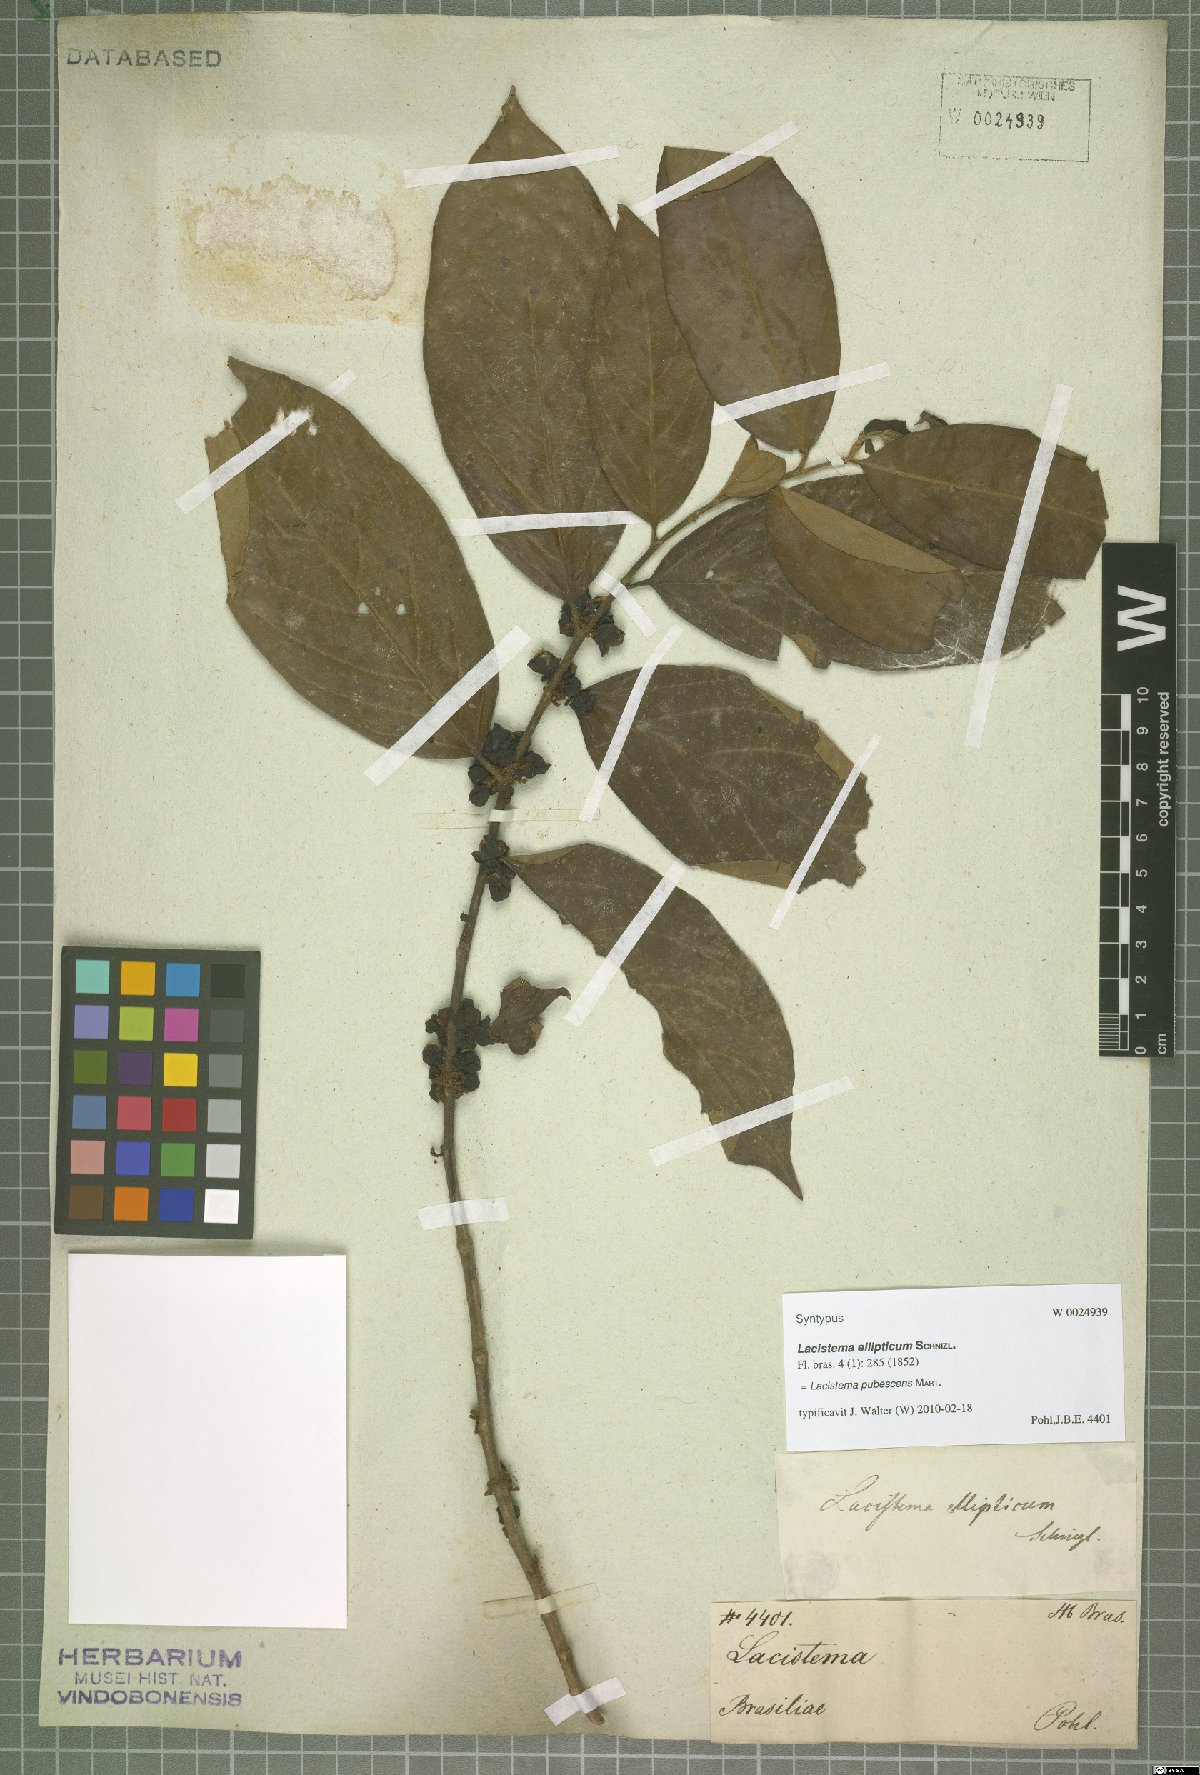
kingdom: Plantae
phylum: Tracheophyta
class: Magnoliopsida
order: Malpighiales
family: Lacistemataceae
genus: Lacistema
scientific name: Lacistema pubescens
